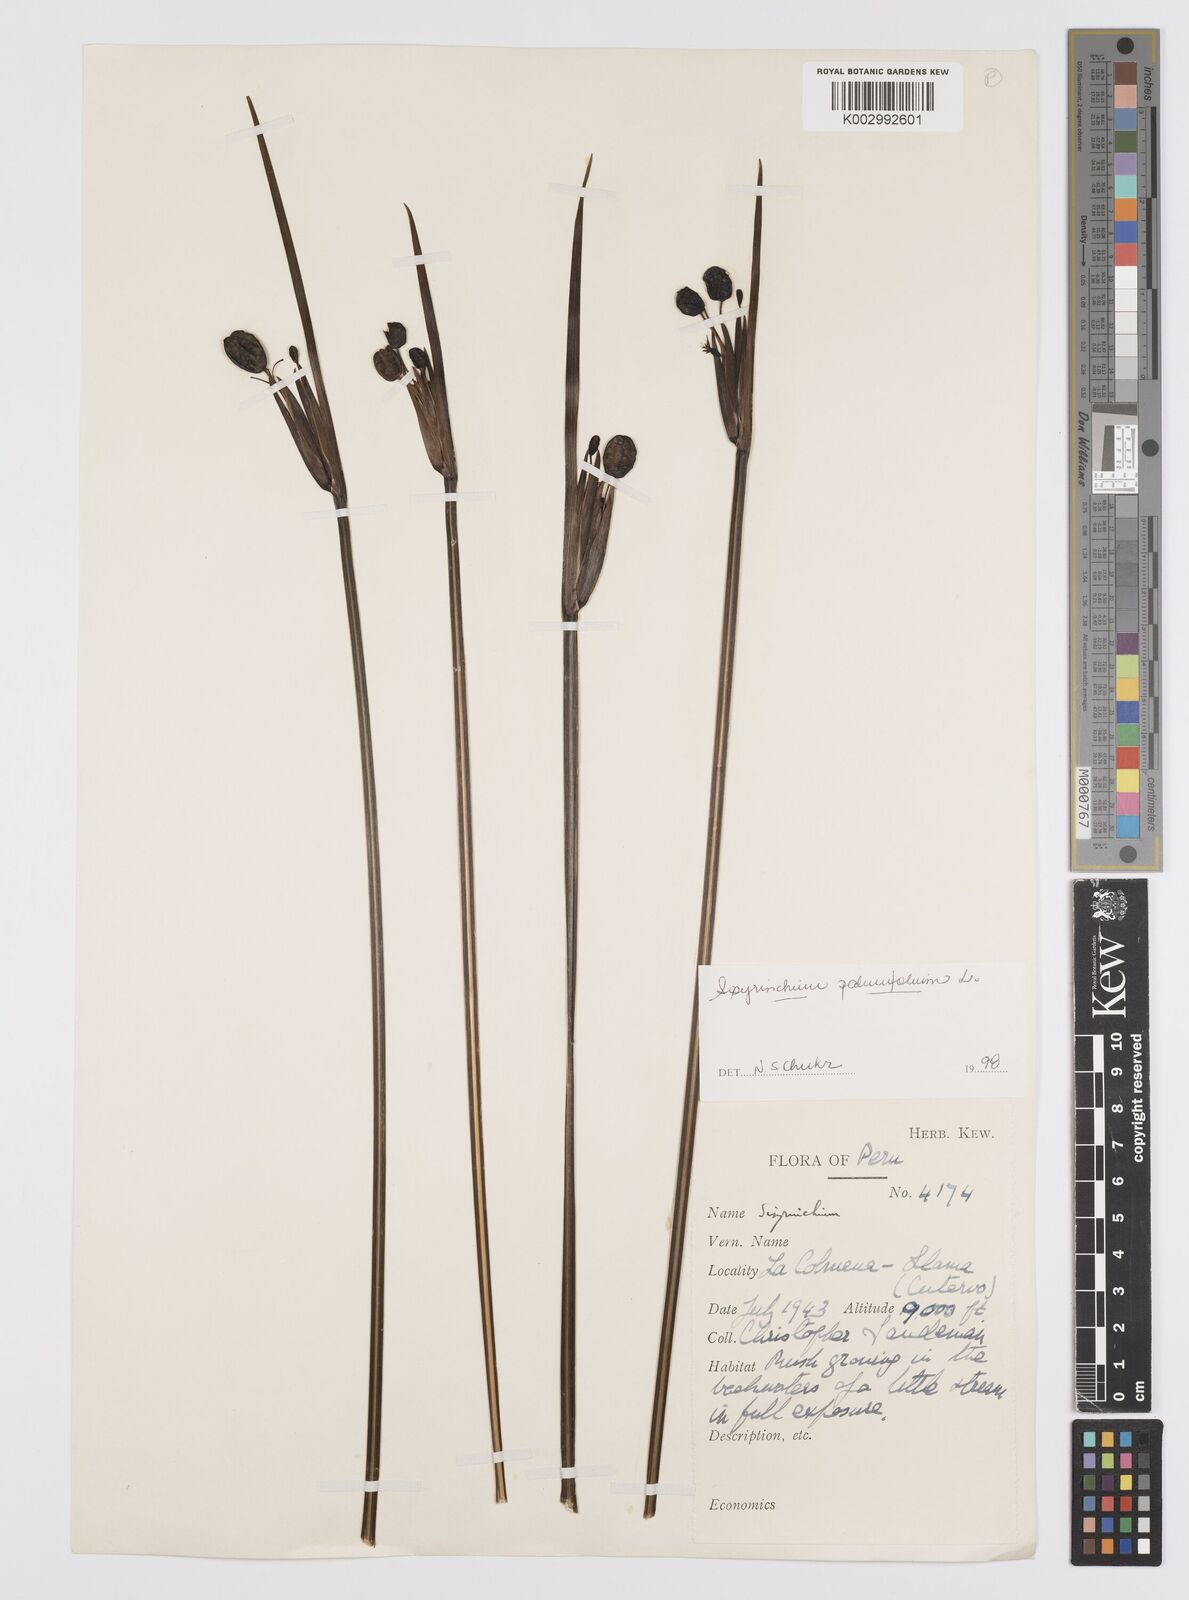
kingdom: Plantae
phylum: Tracheophyta
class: Liliopsida
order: Asparagales
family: Iridaceae
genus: Sisyrinchium
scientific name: Sisyrinchium palmifolium
